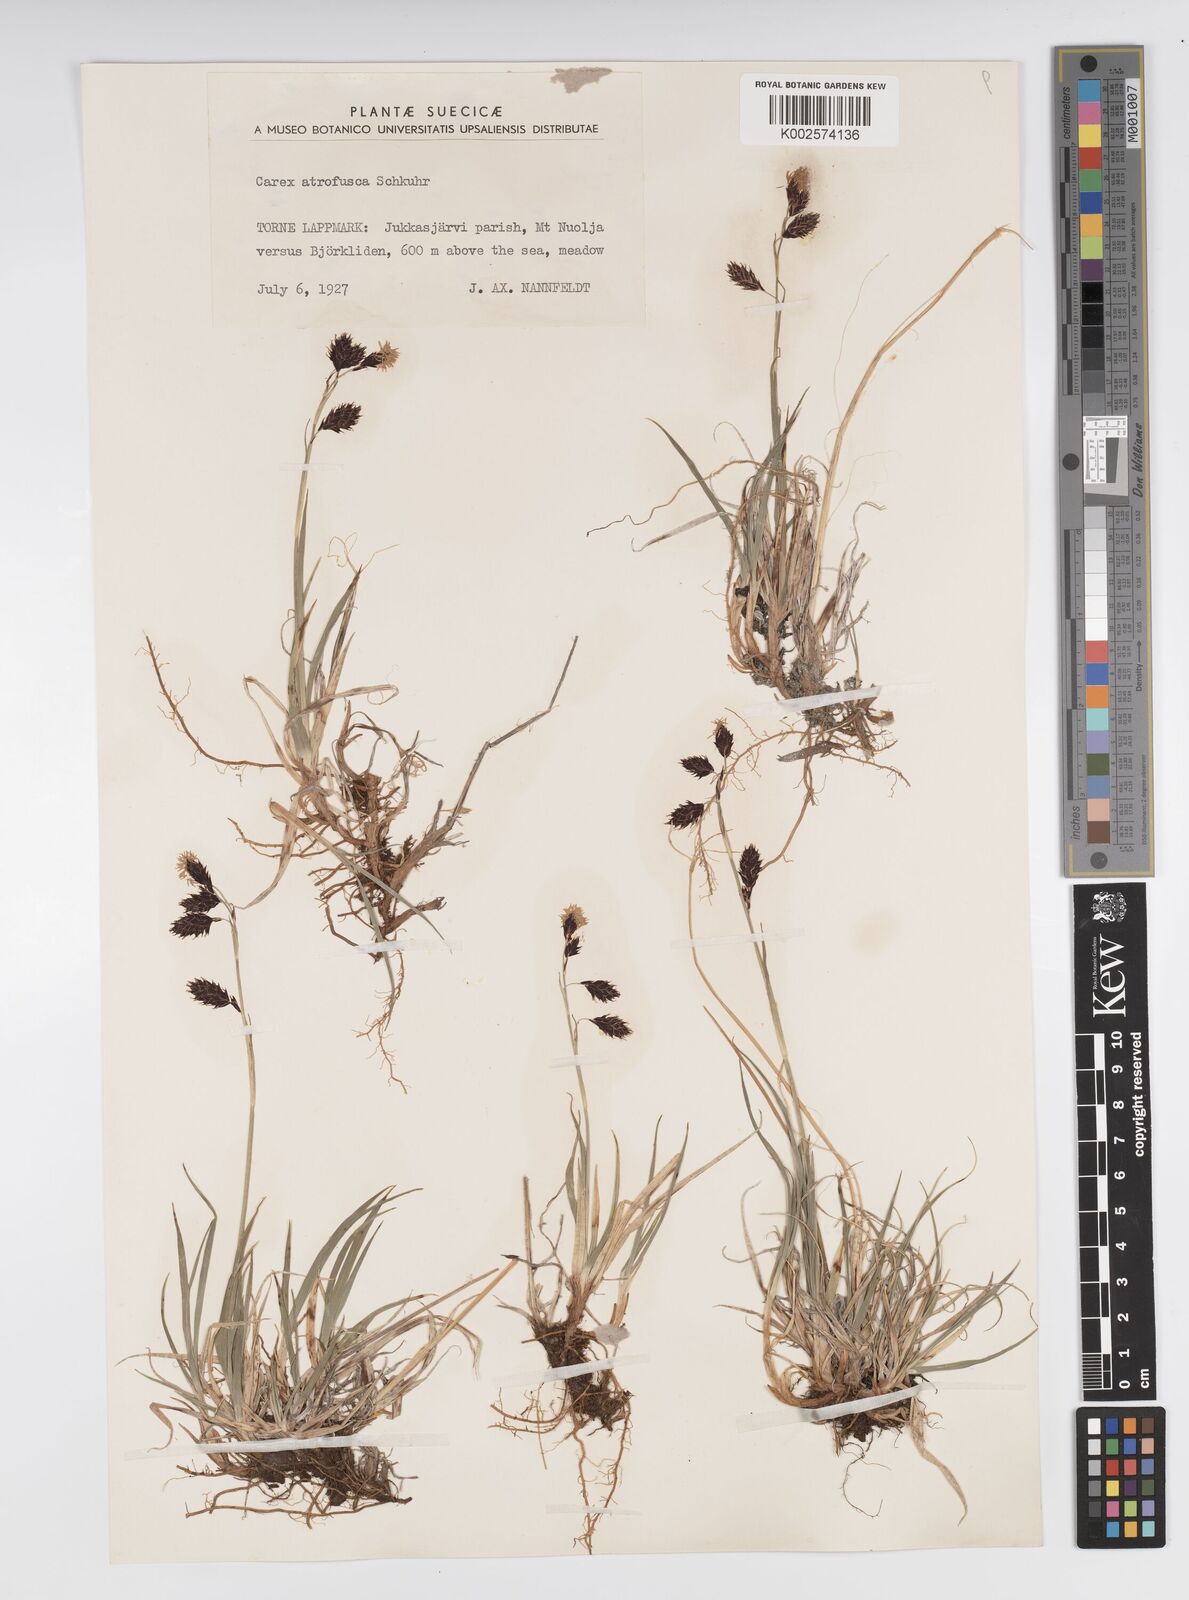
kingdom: Plantae
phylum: Tracheophyta
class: Liliopsida
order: Poales
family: Cyperaceae
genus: Carex
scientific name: Carex atrofusca
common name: Scorched alpine-sedge
